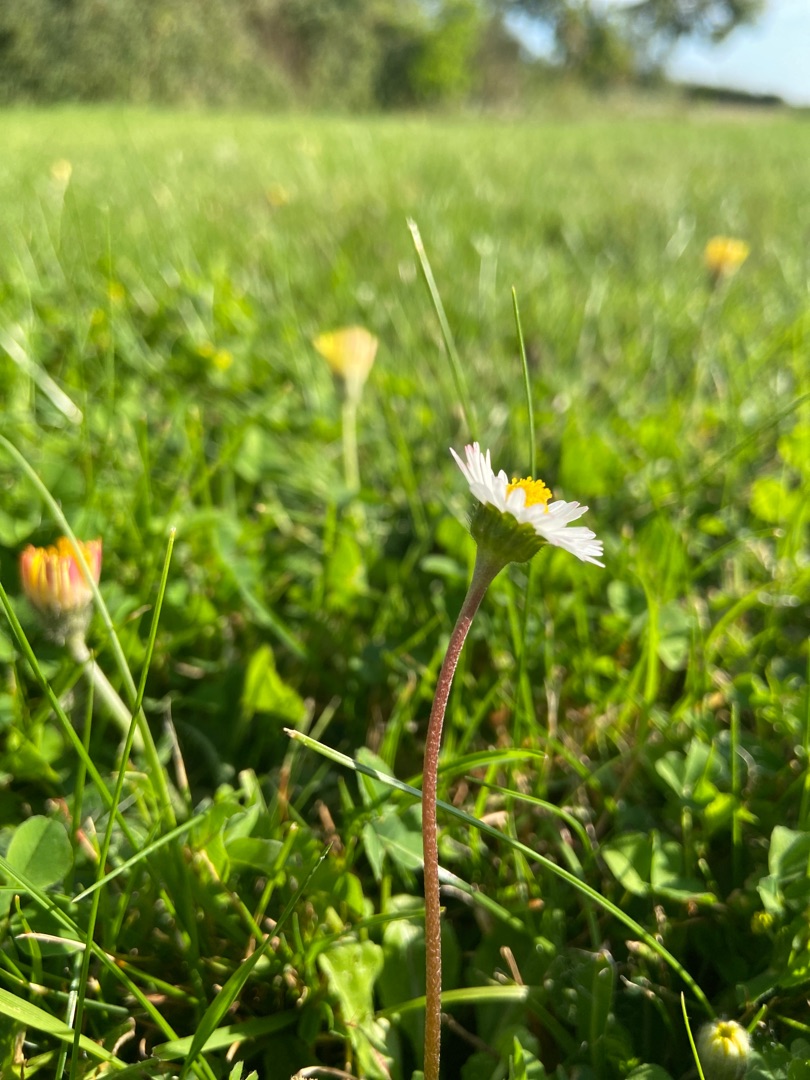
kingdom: Plantae
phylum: Tracheophyta
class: Magnoliopsida
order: Asterales
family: Asteraceae
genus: Bellis
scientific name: Bellis perennis
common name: Tusindfryd
